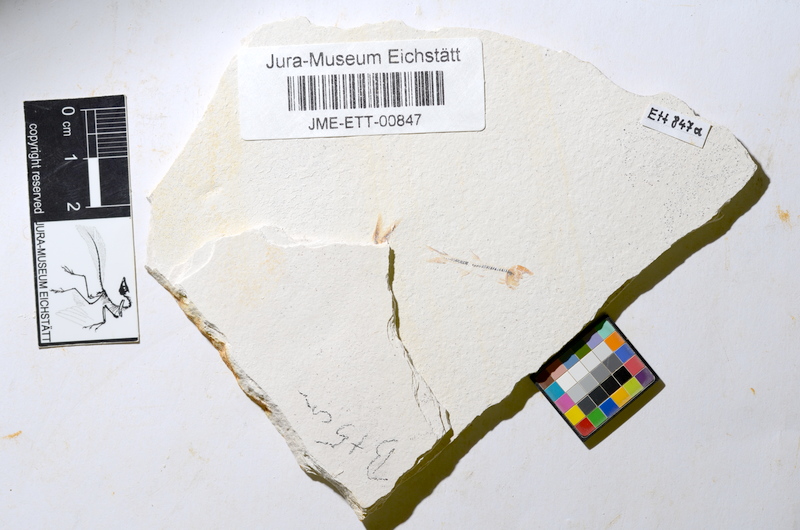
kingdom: Animalia
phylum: Chordata
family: Ascalaboidae
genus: Ebertichthys
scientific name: Ebertichthys ettlingensis
